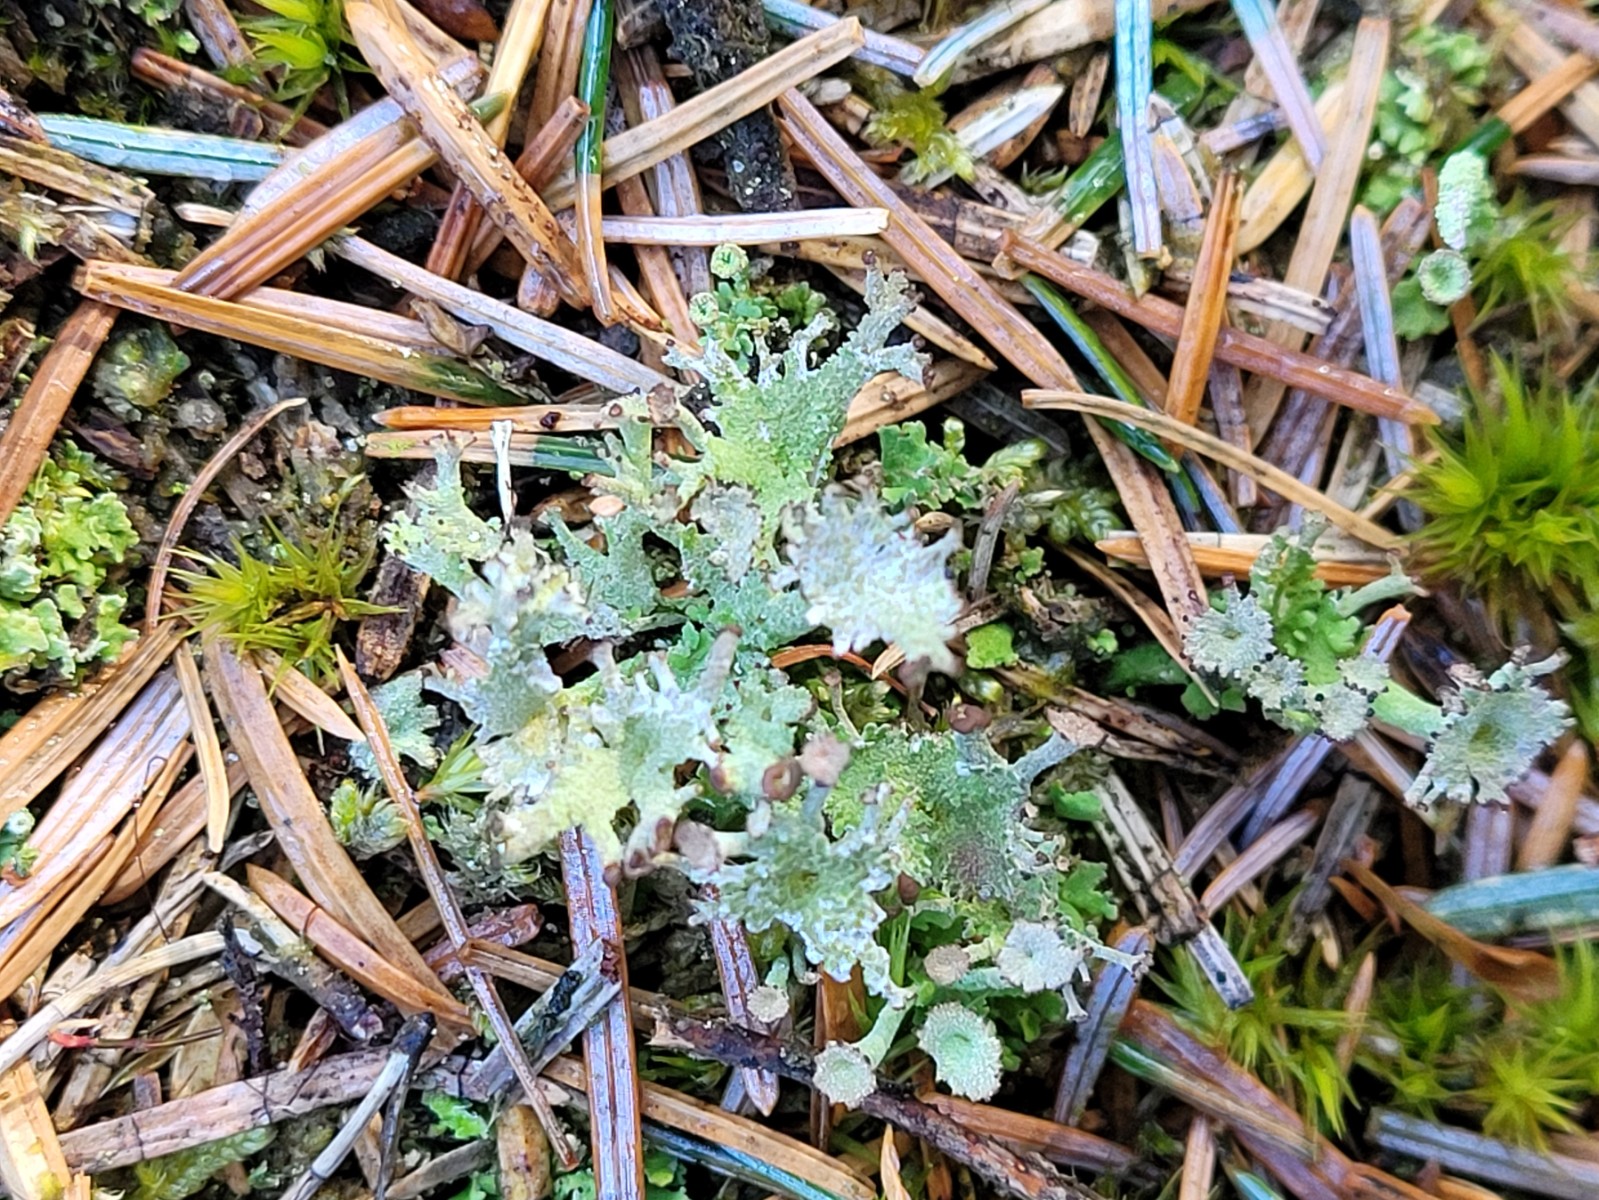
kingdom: Fungi
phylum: Ascomycota
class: Lecanoromycetes
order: Lecanorales
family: Cladoniaceae
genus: Cladonia
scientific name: Cladonia ramulosa
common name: kliddet bægerlav
